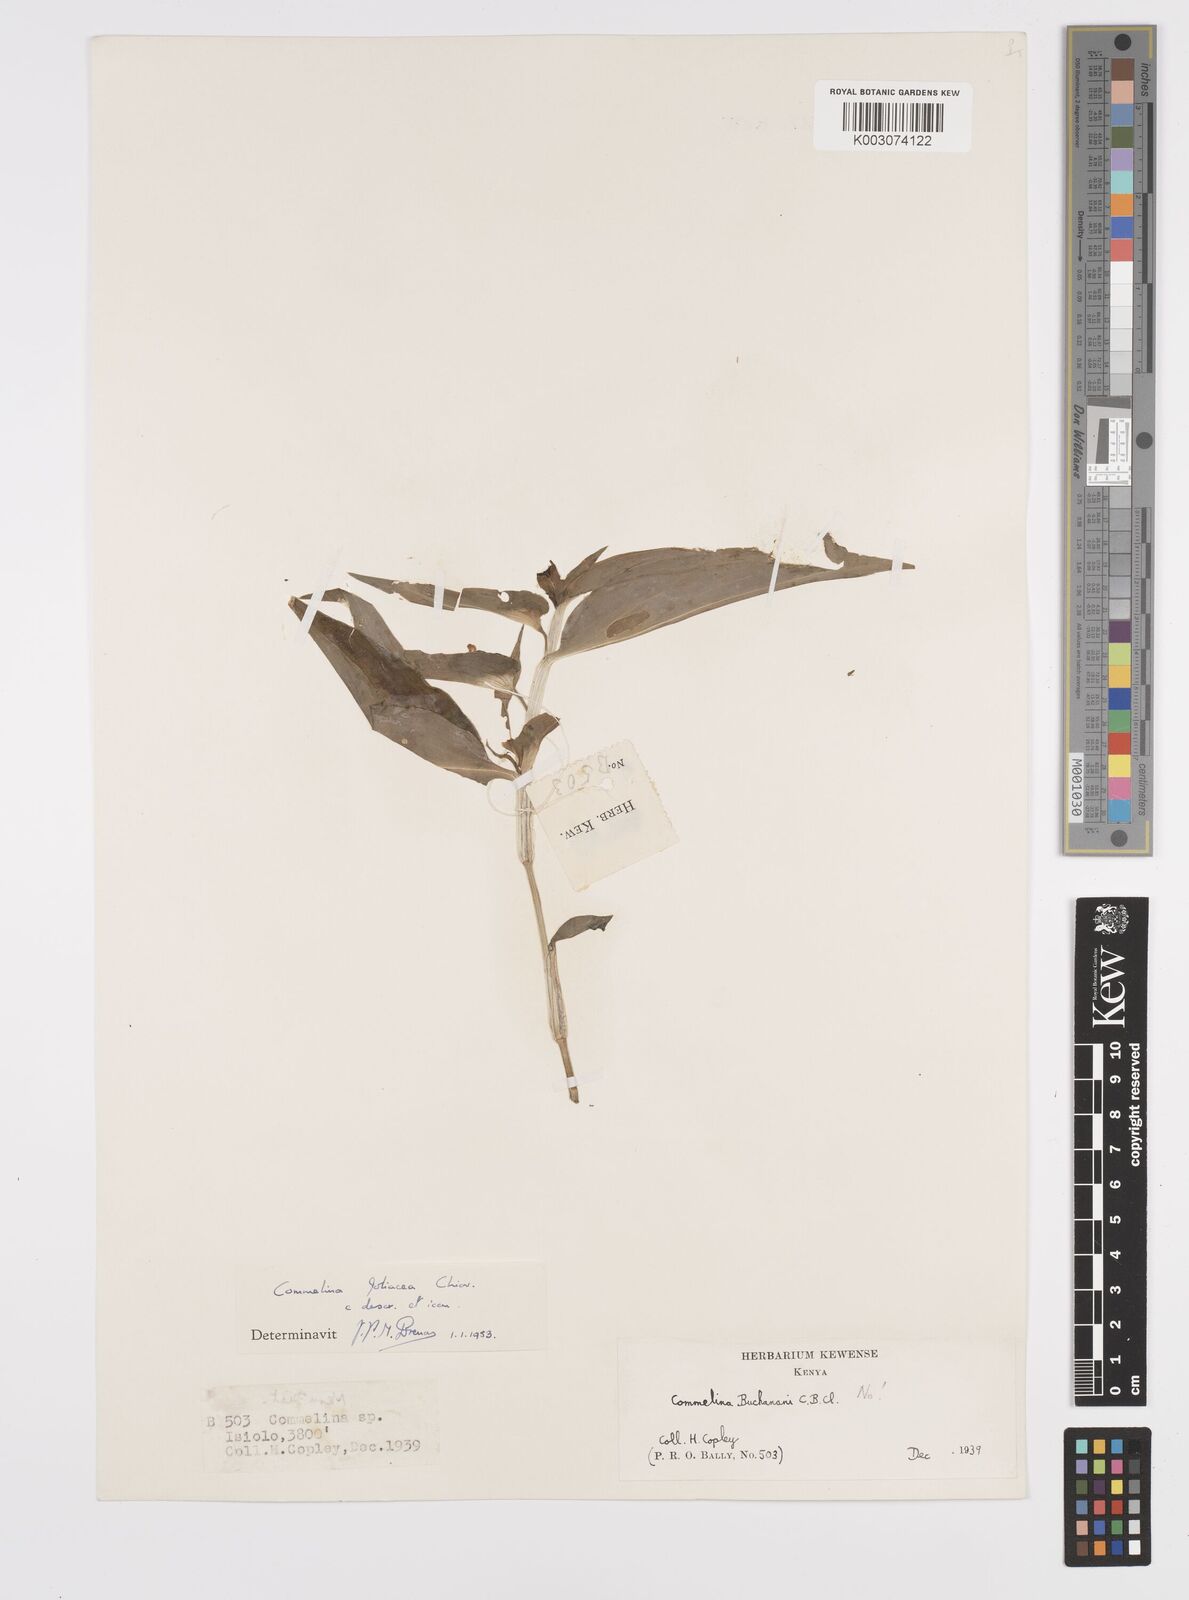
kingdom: Plantae
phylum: Tracheophyta
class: Liliopsida
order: Commelinales
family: Commelinaceae
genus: Commelina
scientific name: Commelina foliacea
